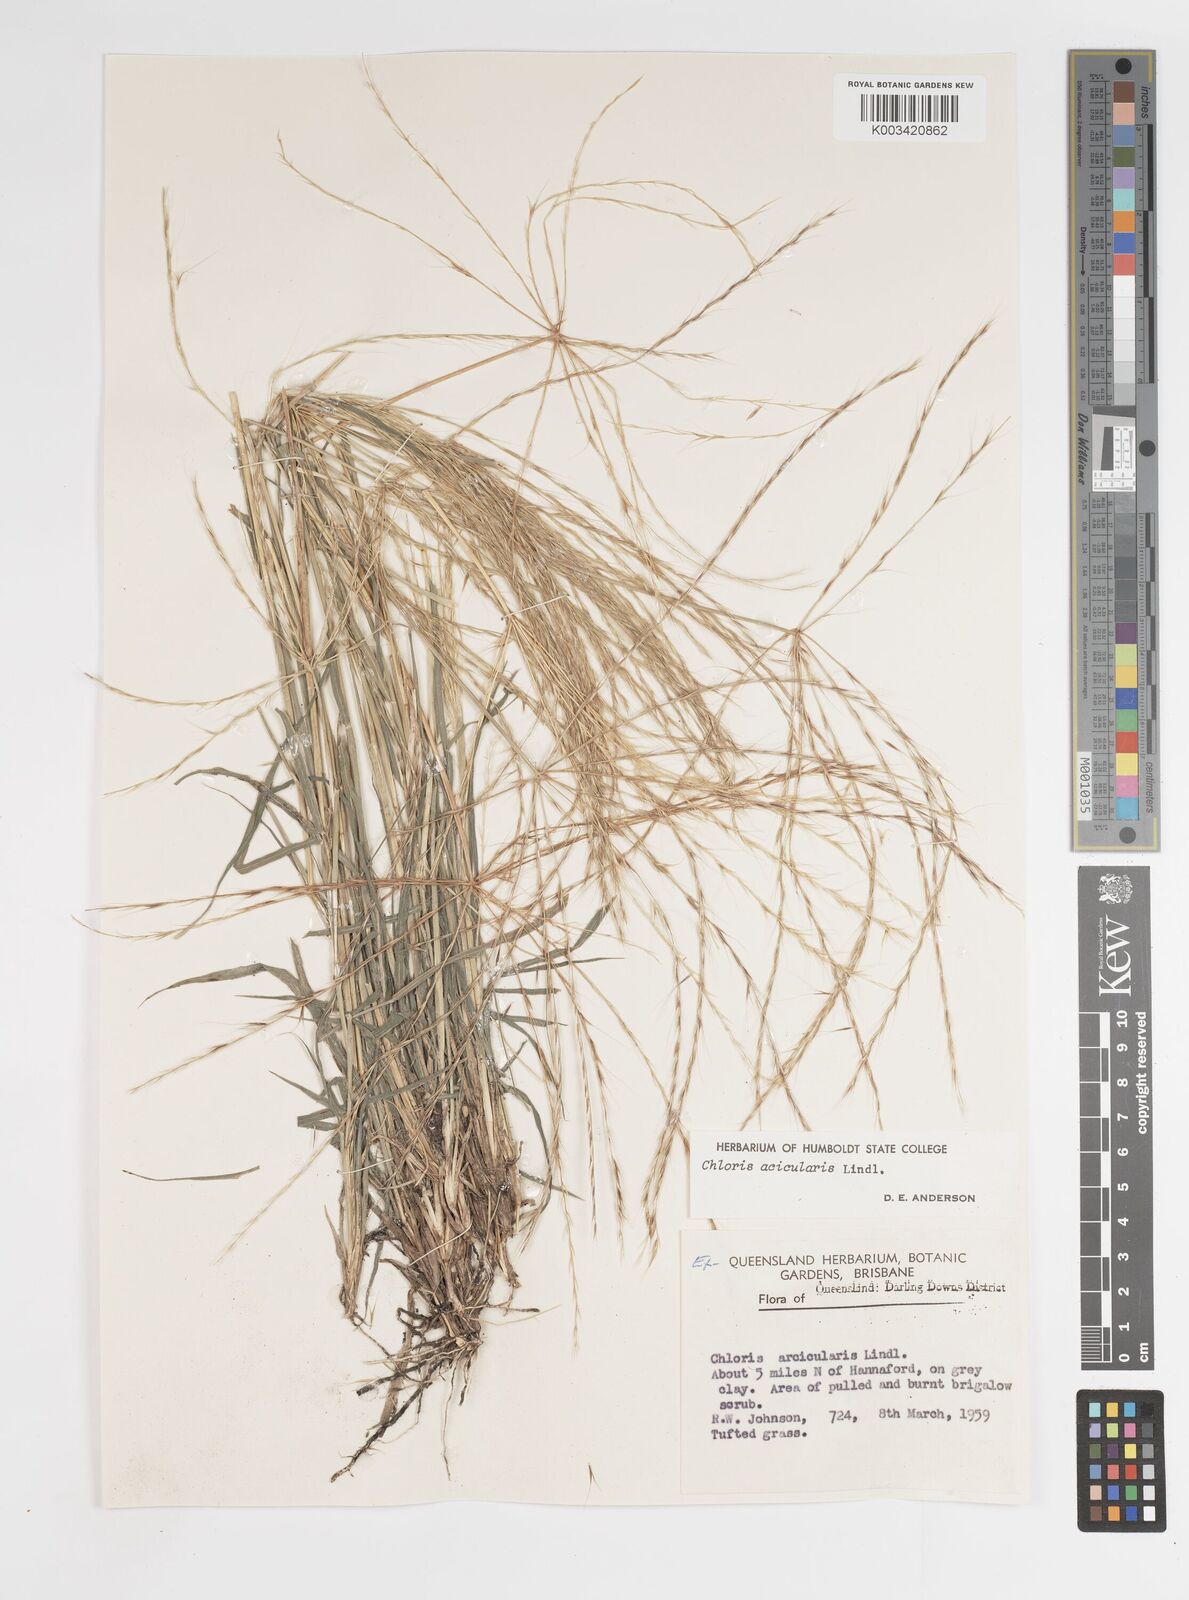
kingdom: Plantae
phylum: Tracheophyta
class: Liliopsida
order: Poales
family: Poaceae
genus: Enteropogon
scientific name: Enteropogon acicularis
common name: Curly windmill grass
